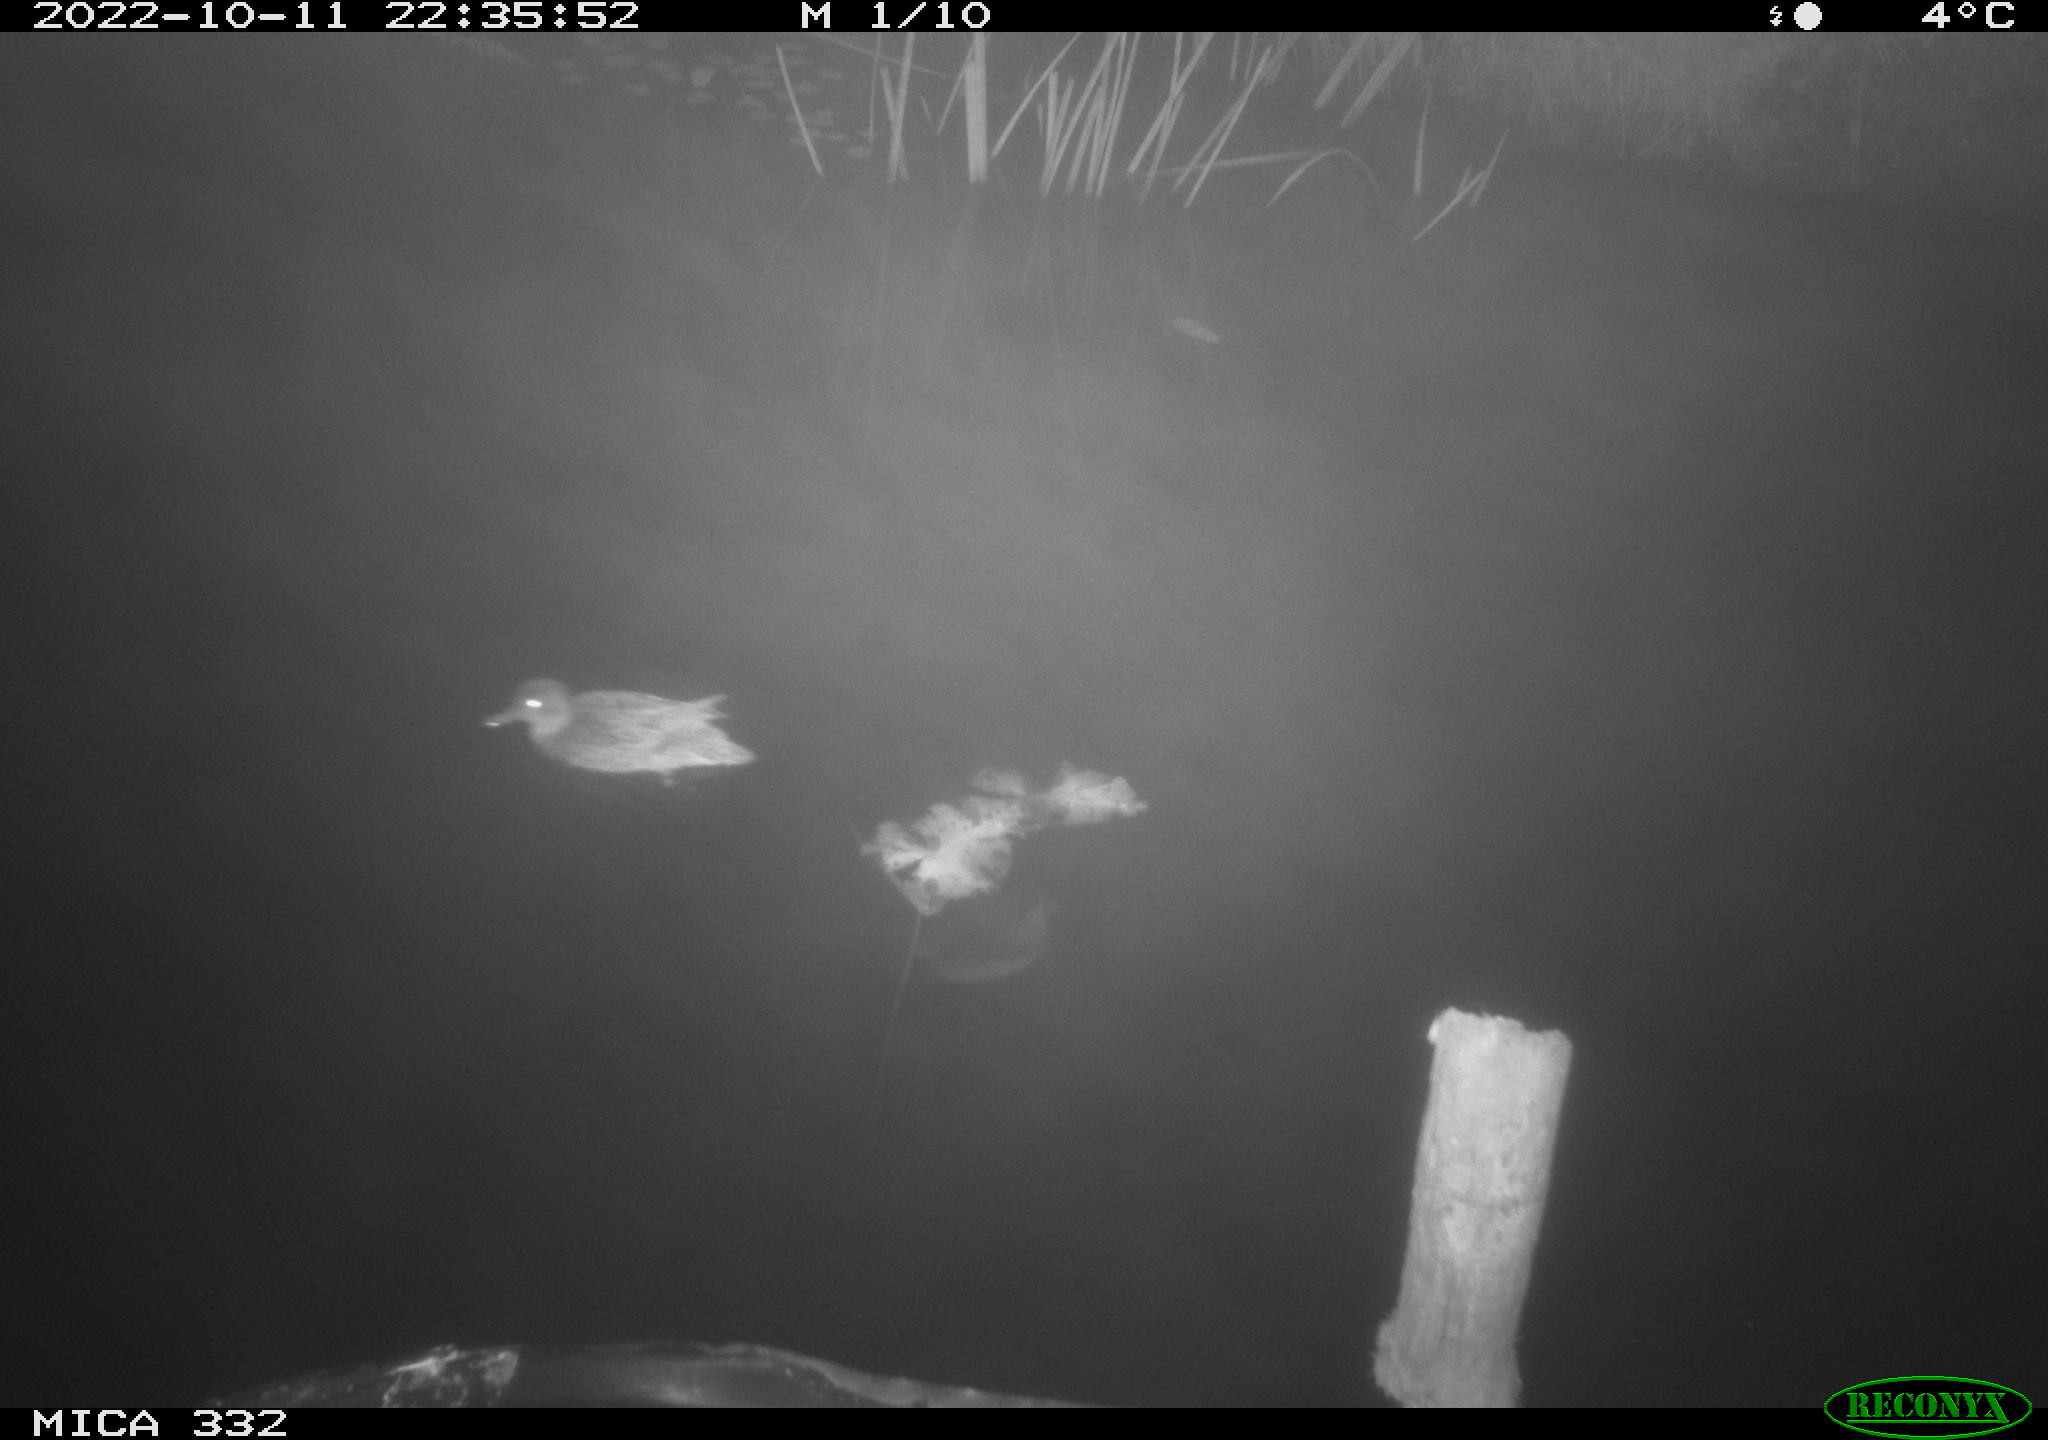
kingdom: Animalia
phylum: Chordata
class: Aves
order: Anseriformes
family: Anatidae
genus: Anas
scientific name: Anas
